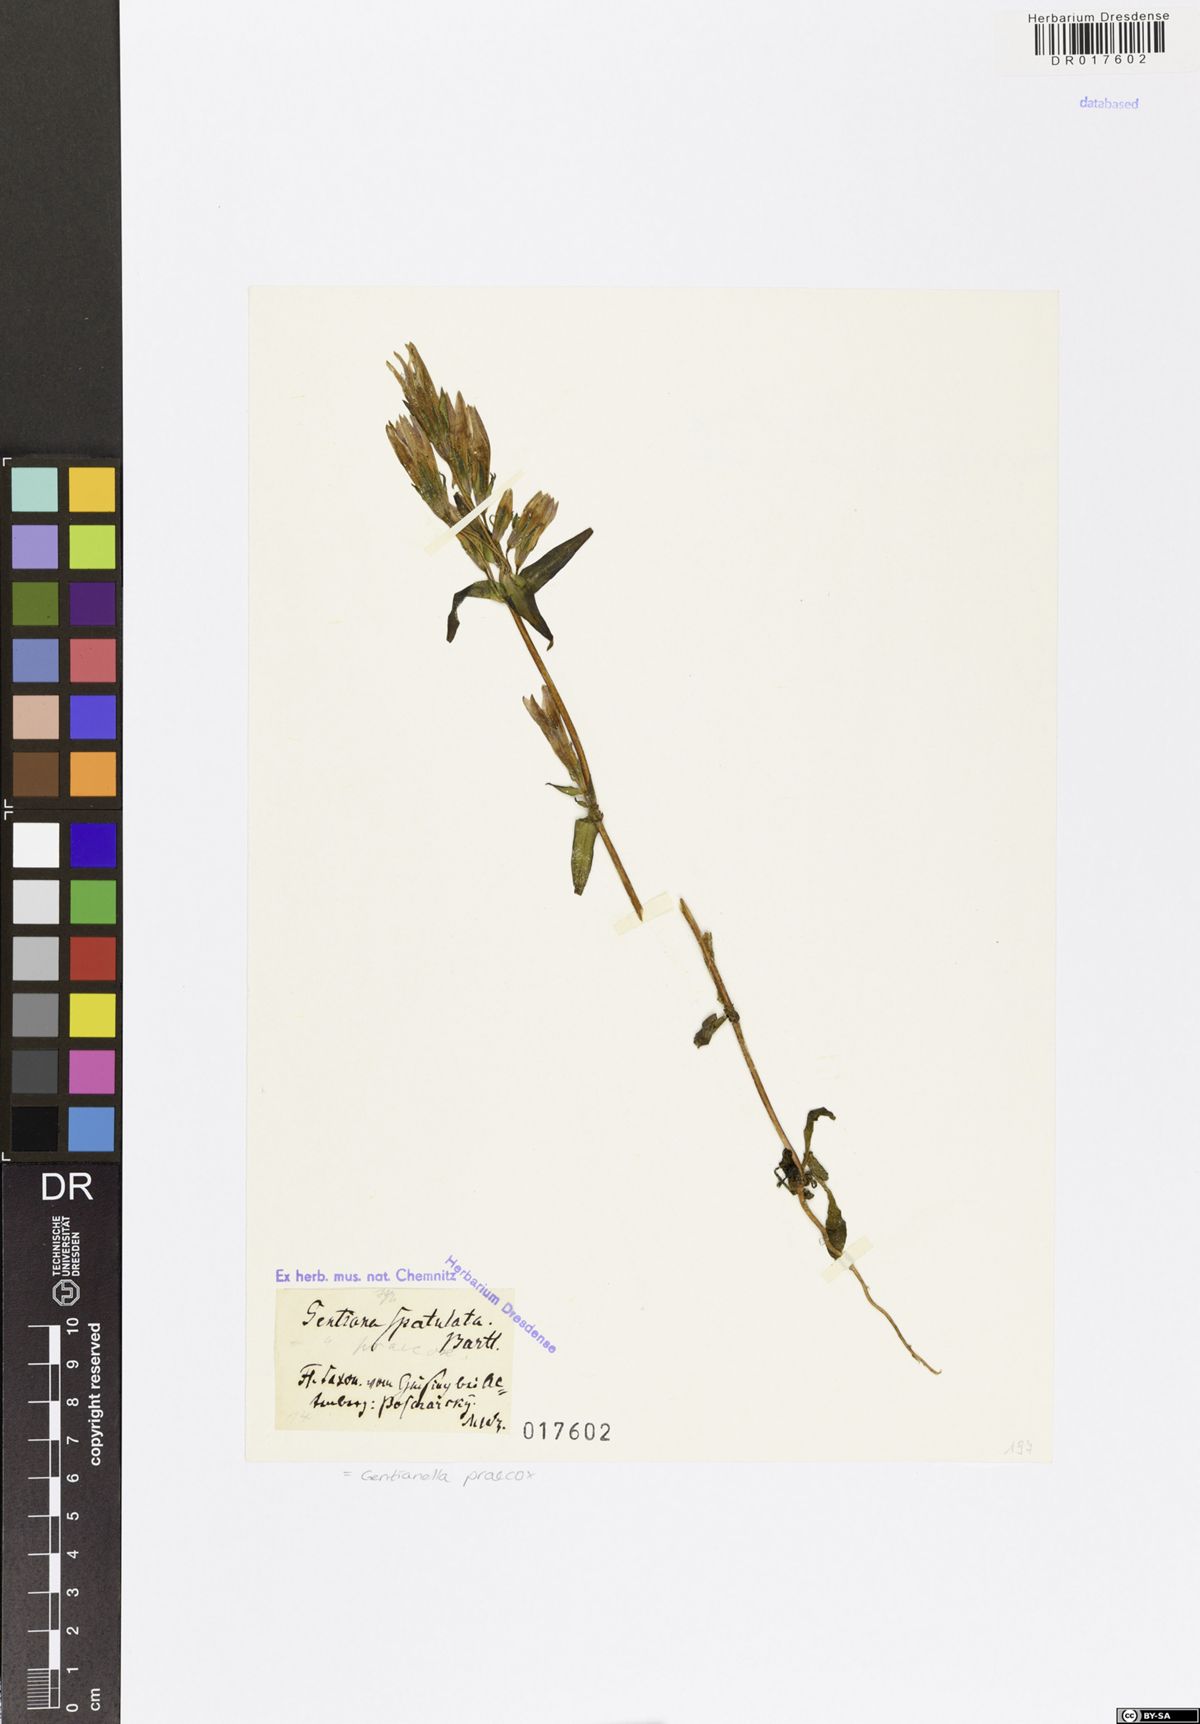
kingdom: Plantae
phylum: Tracheophyta
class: Magnoliopsida
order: Gentianales
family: Gentianaceae
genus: Gentianella
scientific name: Gentianella praecox
